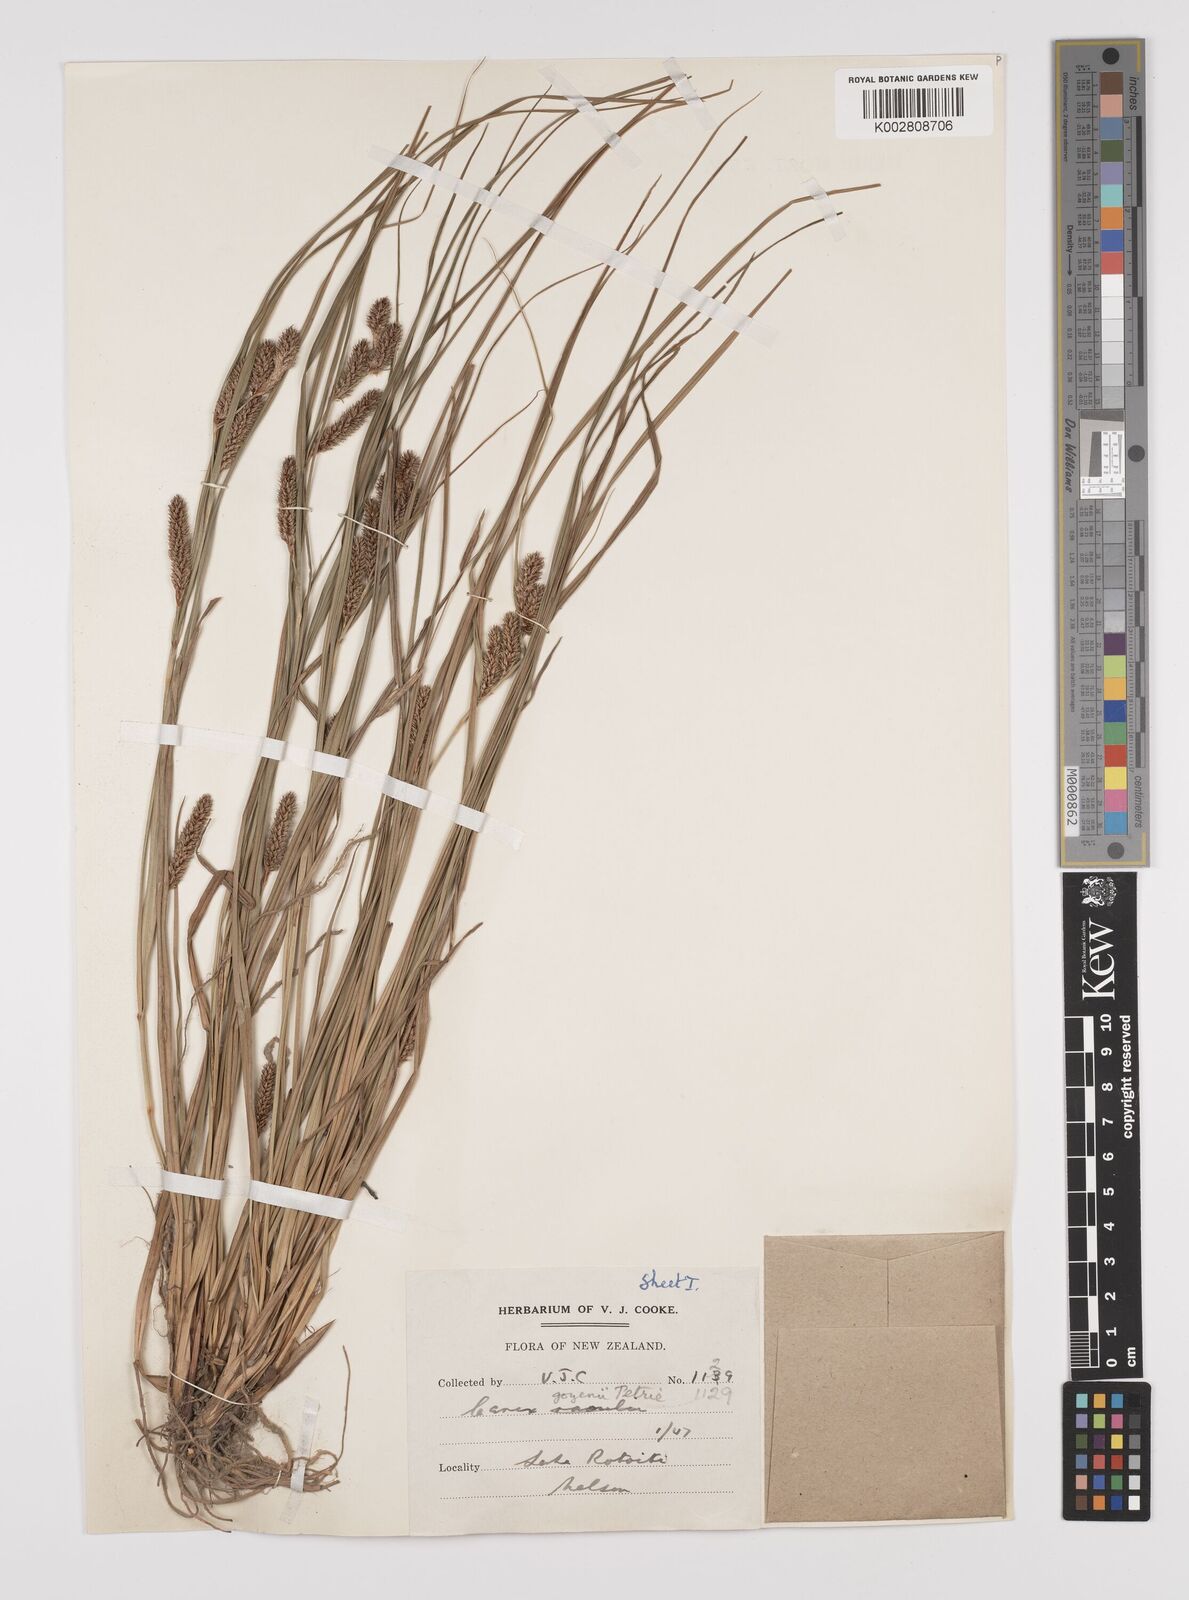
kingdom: Plantae
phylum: Tracheophyta
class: Liliopsida
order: Poales
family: Cyperaceae
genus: Carex
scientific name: Carex raoulii
